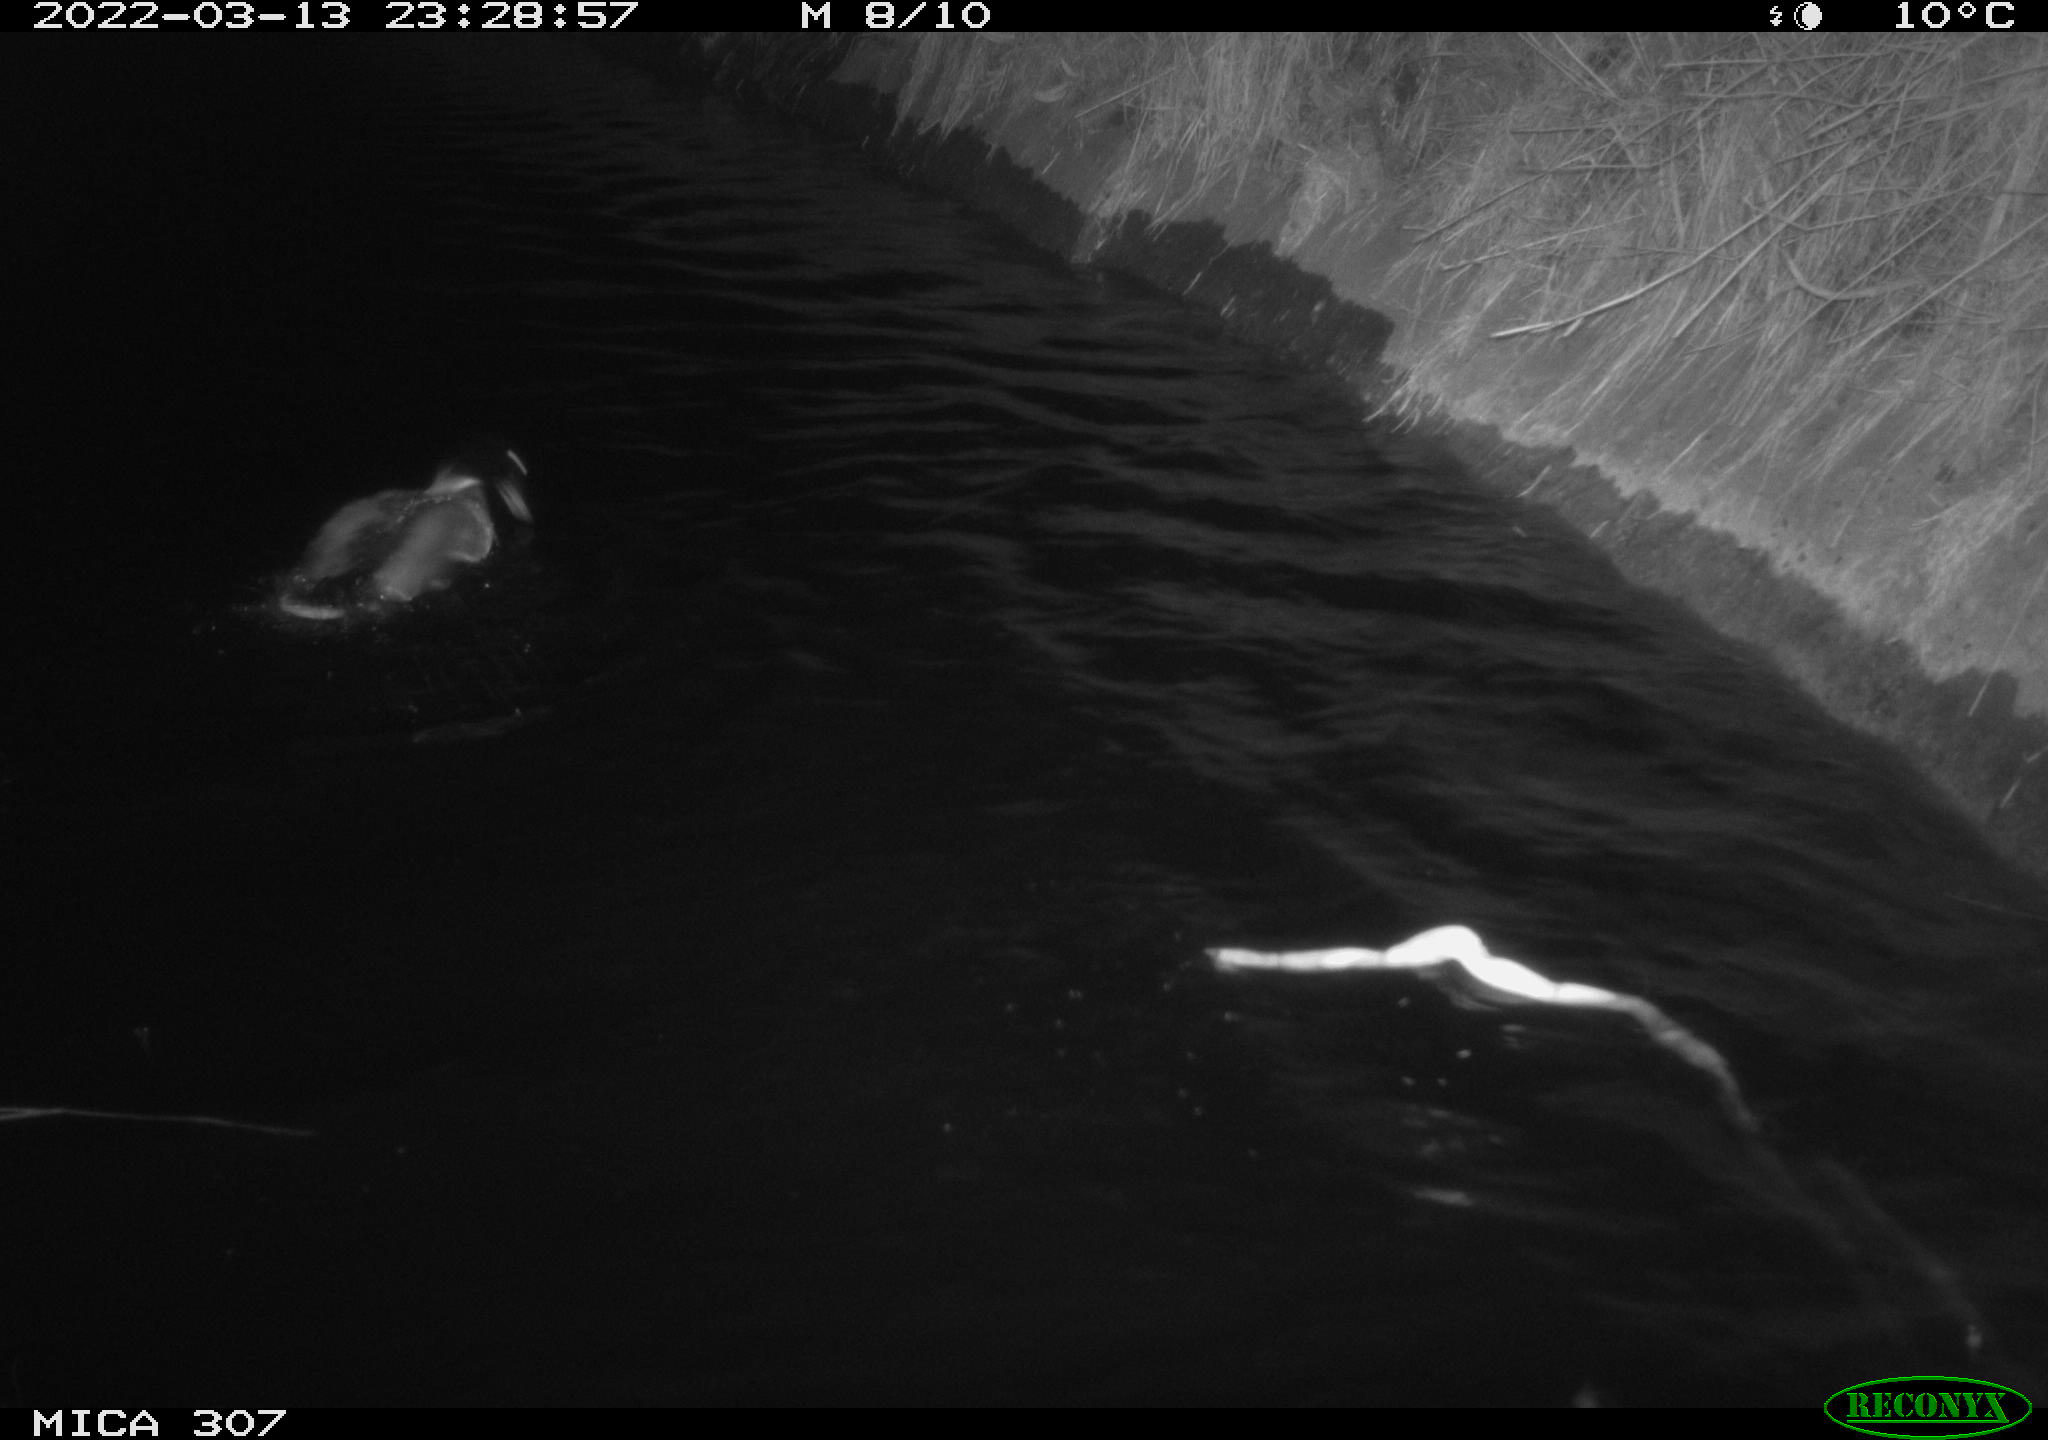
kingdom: Animalia
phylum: Chordata
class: Aves
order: Anseriformes
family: Anatidae
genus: Anas
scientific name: Anas platyrhynchos
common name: Mallard
